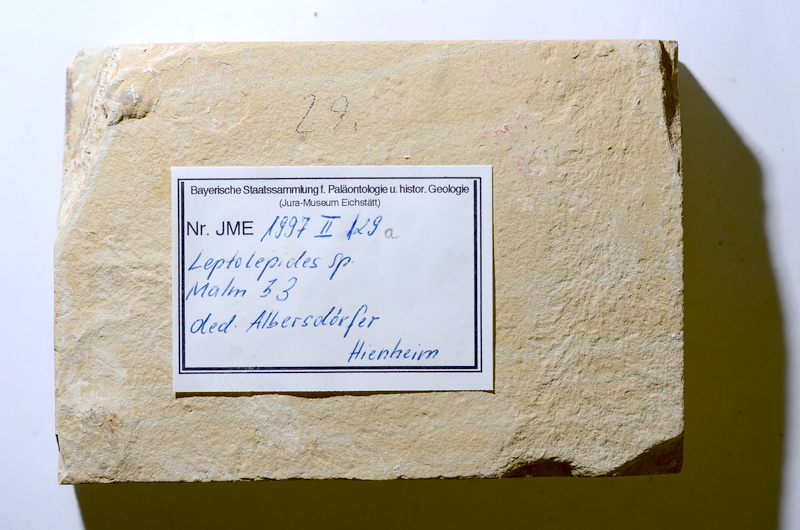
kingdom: Animalia
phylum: Chordata
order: Salmoniformes
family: Orthogonikleithridae
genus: Leptolepides
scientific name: Leptolepides
